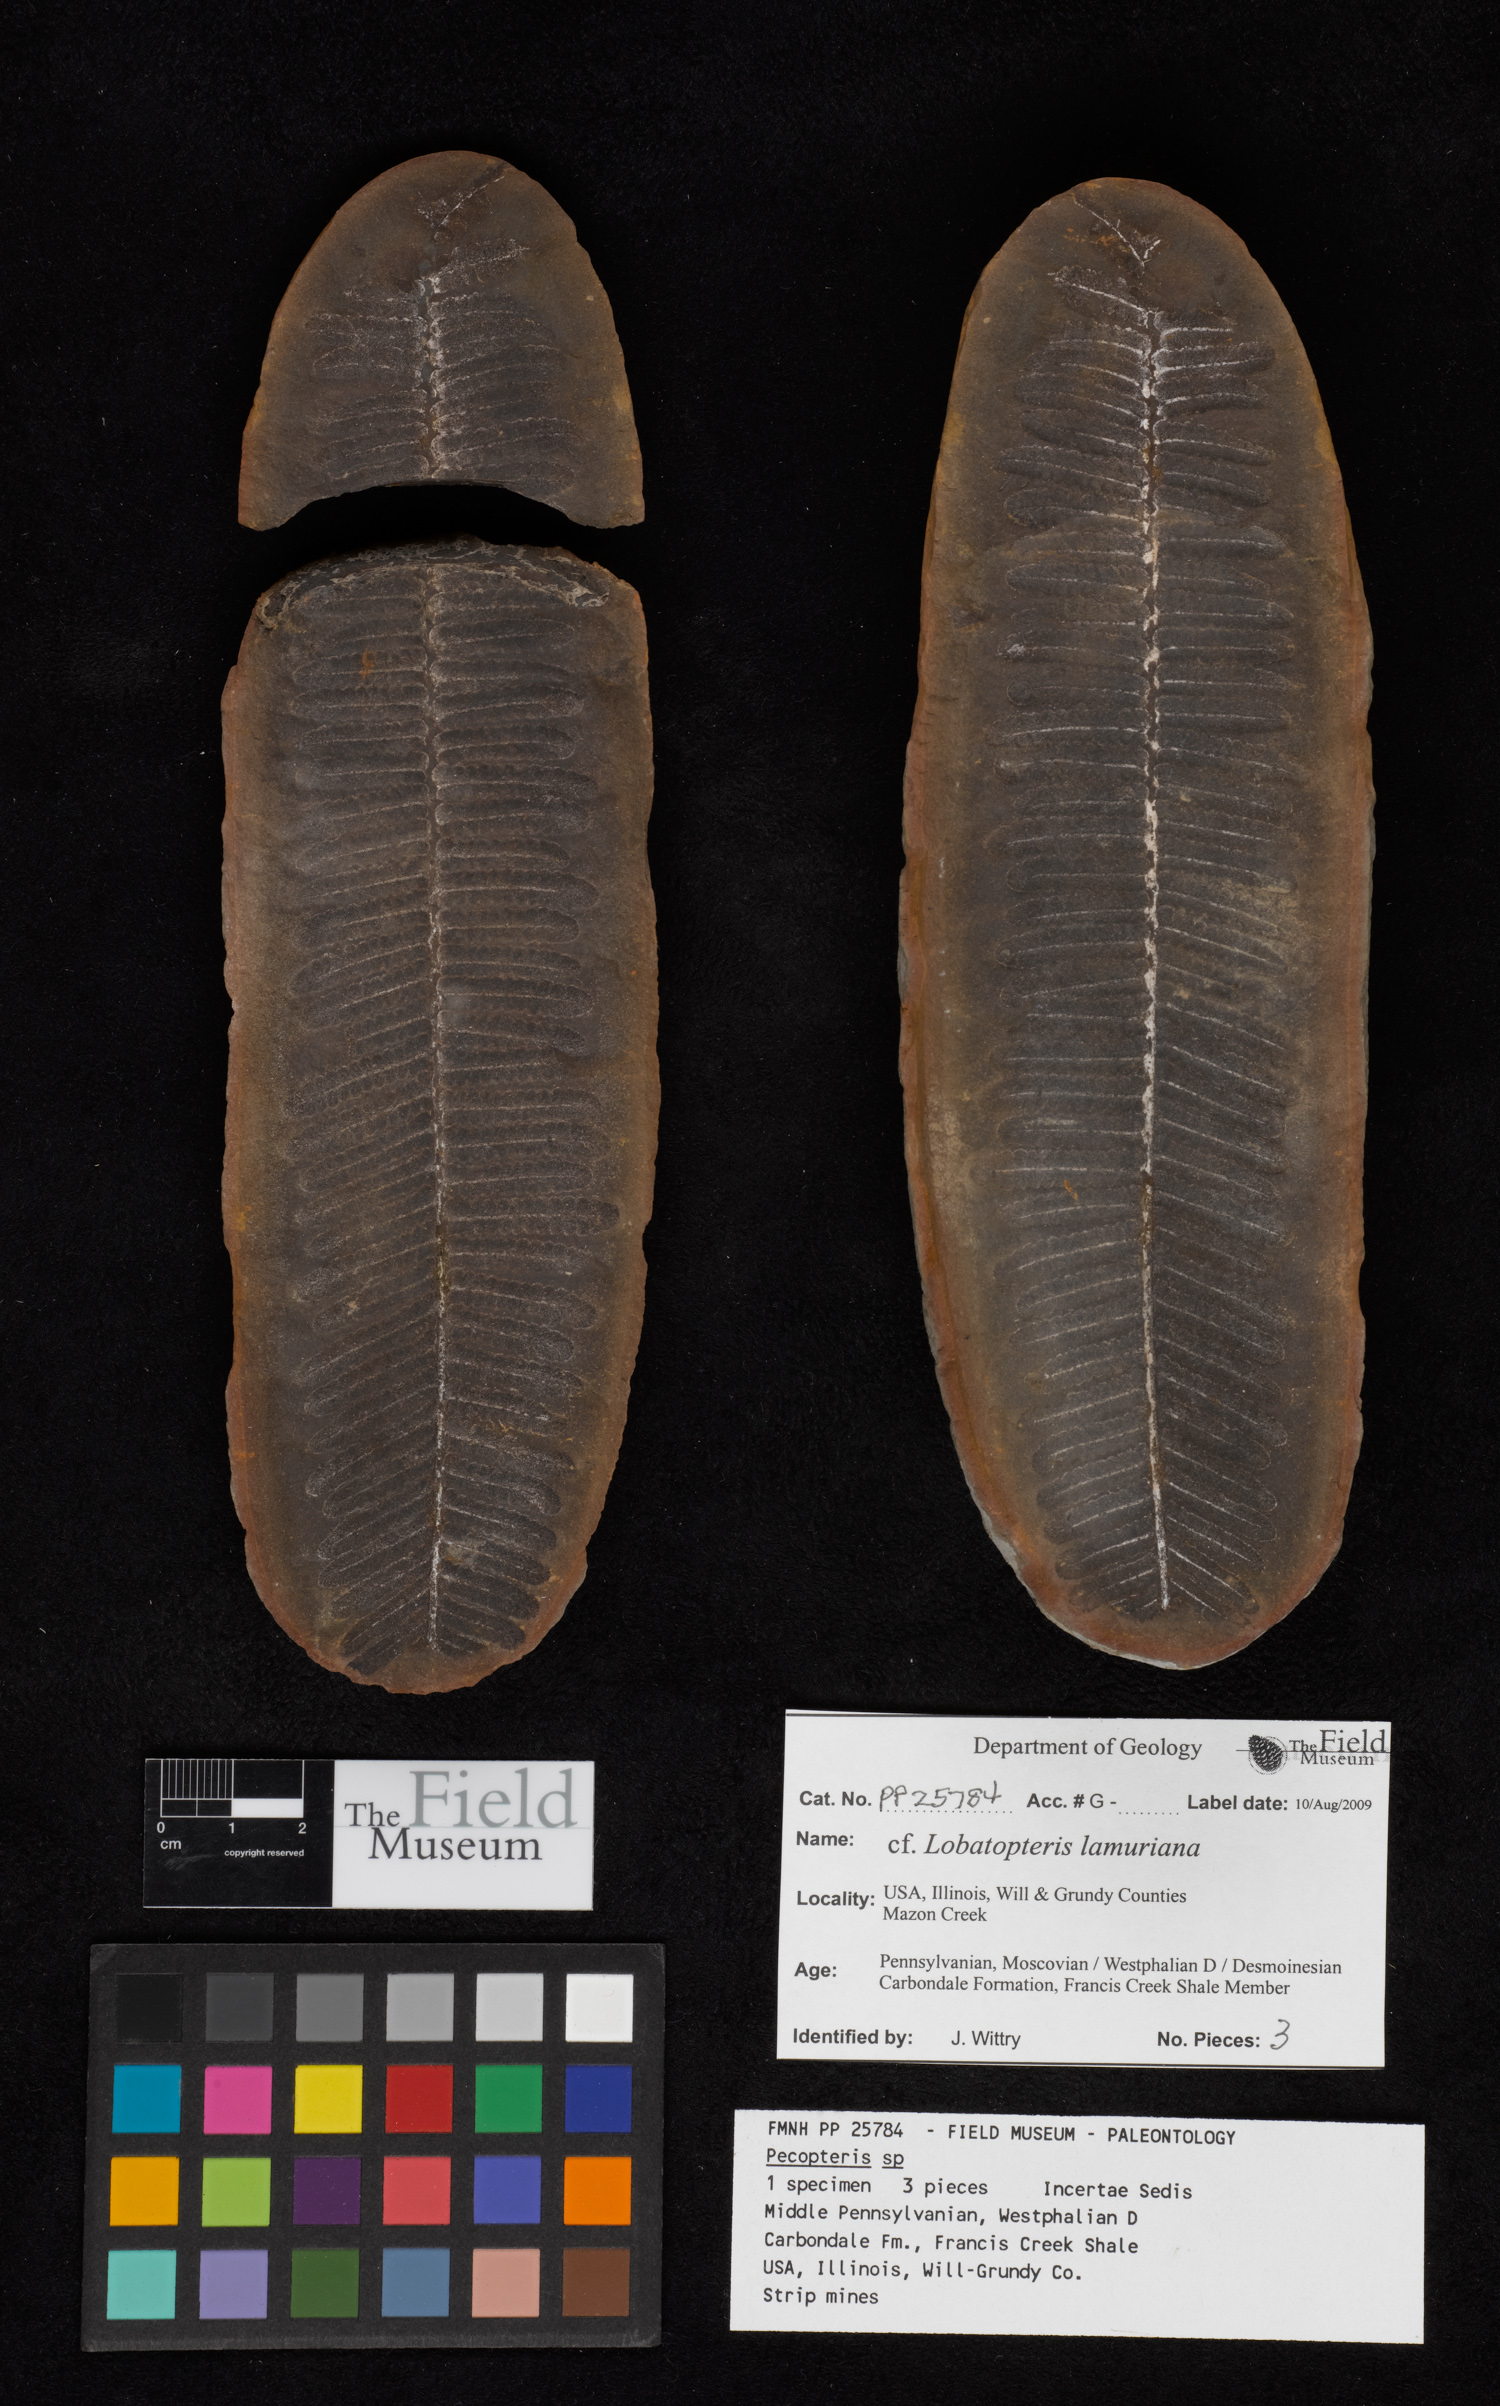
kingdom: Plantae
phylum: Tracheophyta
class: Polypodiopsida
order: Marattiales
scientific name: Marattiales
